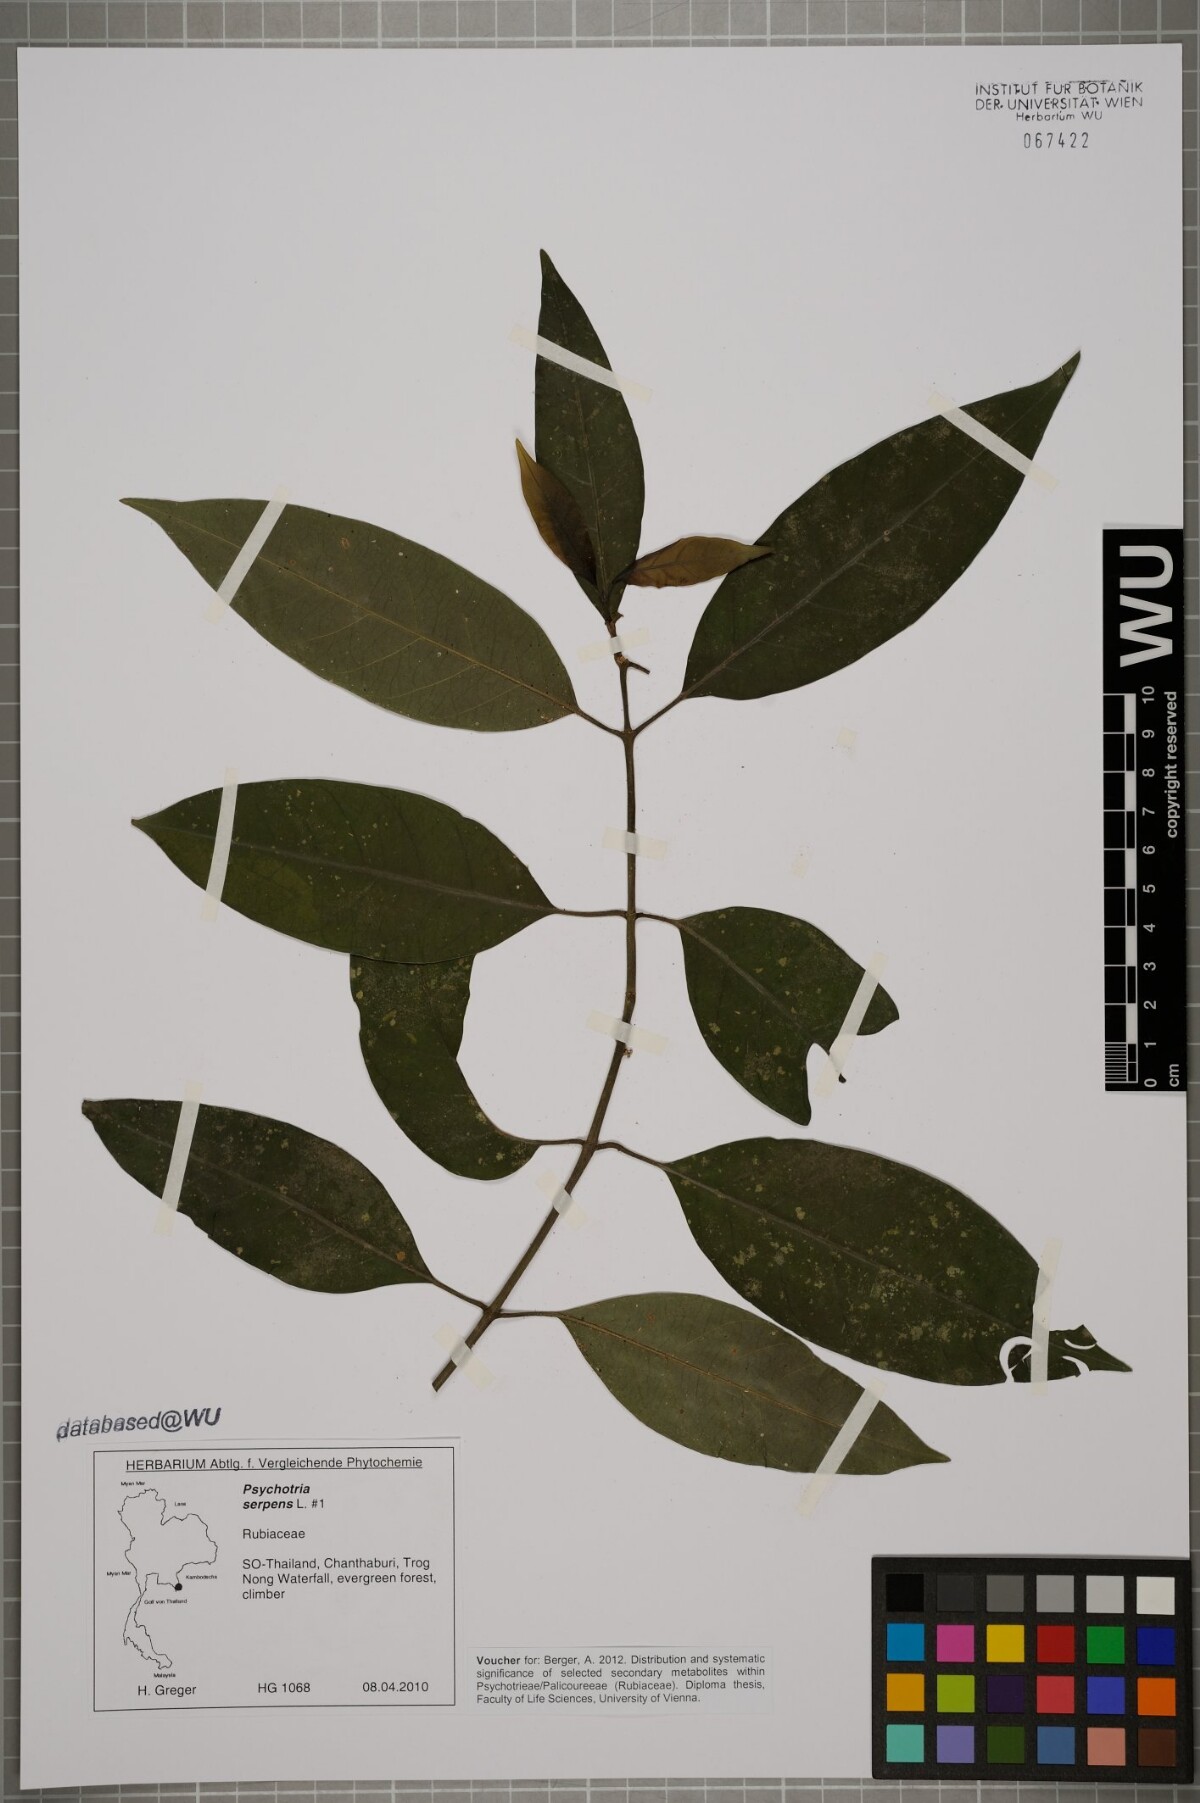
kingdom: Plantae
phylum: Tracheophyta
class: Magnoliopsida
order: Gentianales
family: Rubiaceae
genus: Psychotria
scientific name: Psychotria serpens
